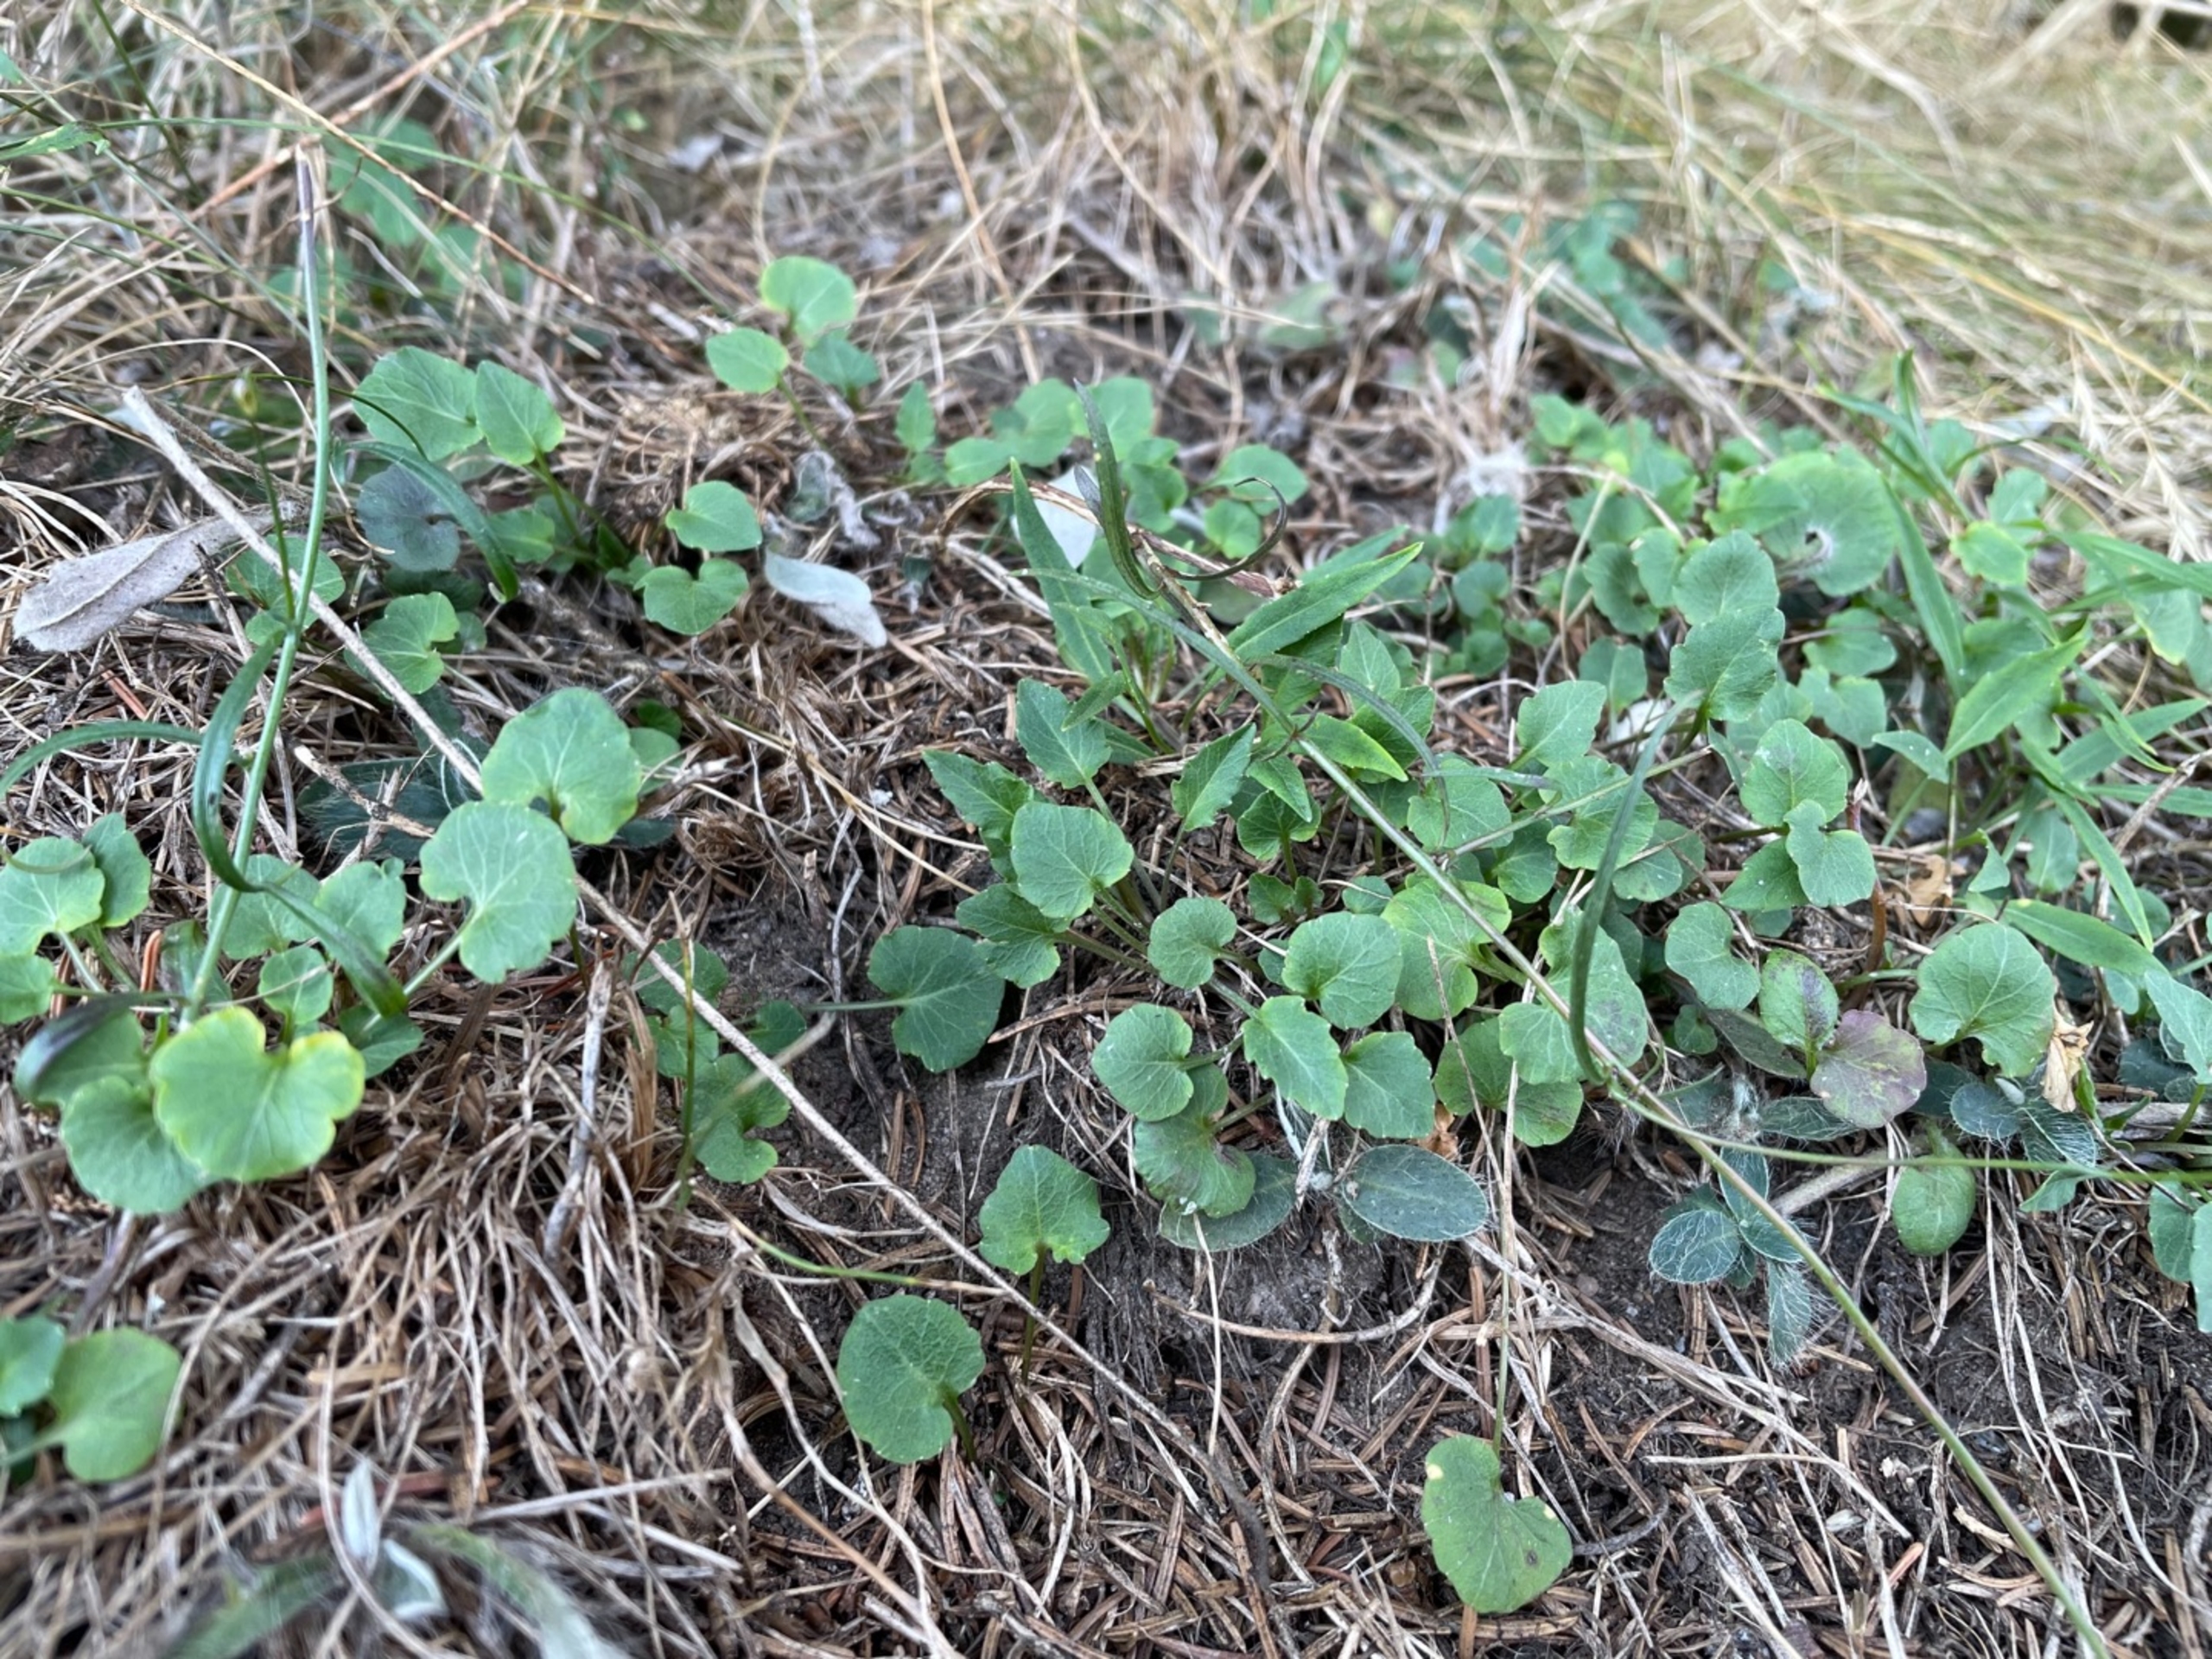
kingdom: Plantae
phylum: Tracheophyta
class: Magnoliopsida
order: Asterales
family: Campanulaceae
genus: Campanula
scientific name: Campanula rotundifolia
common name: Liden klokke
